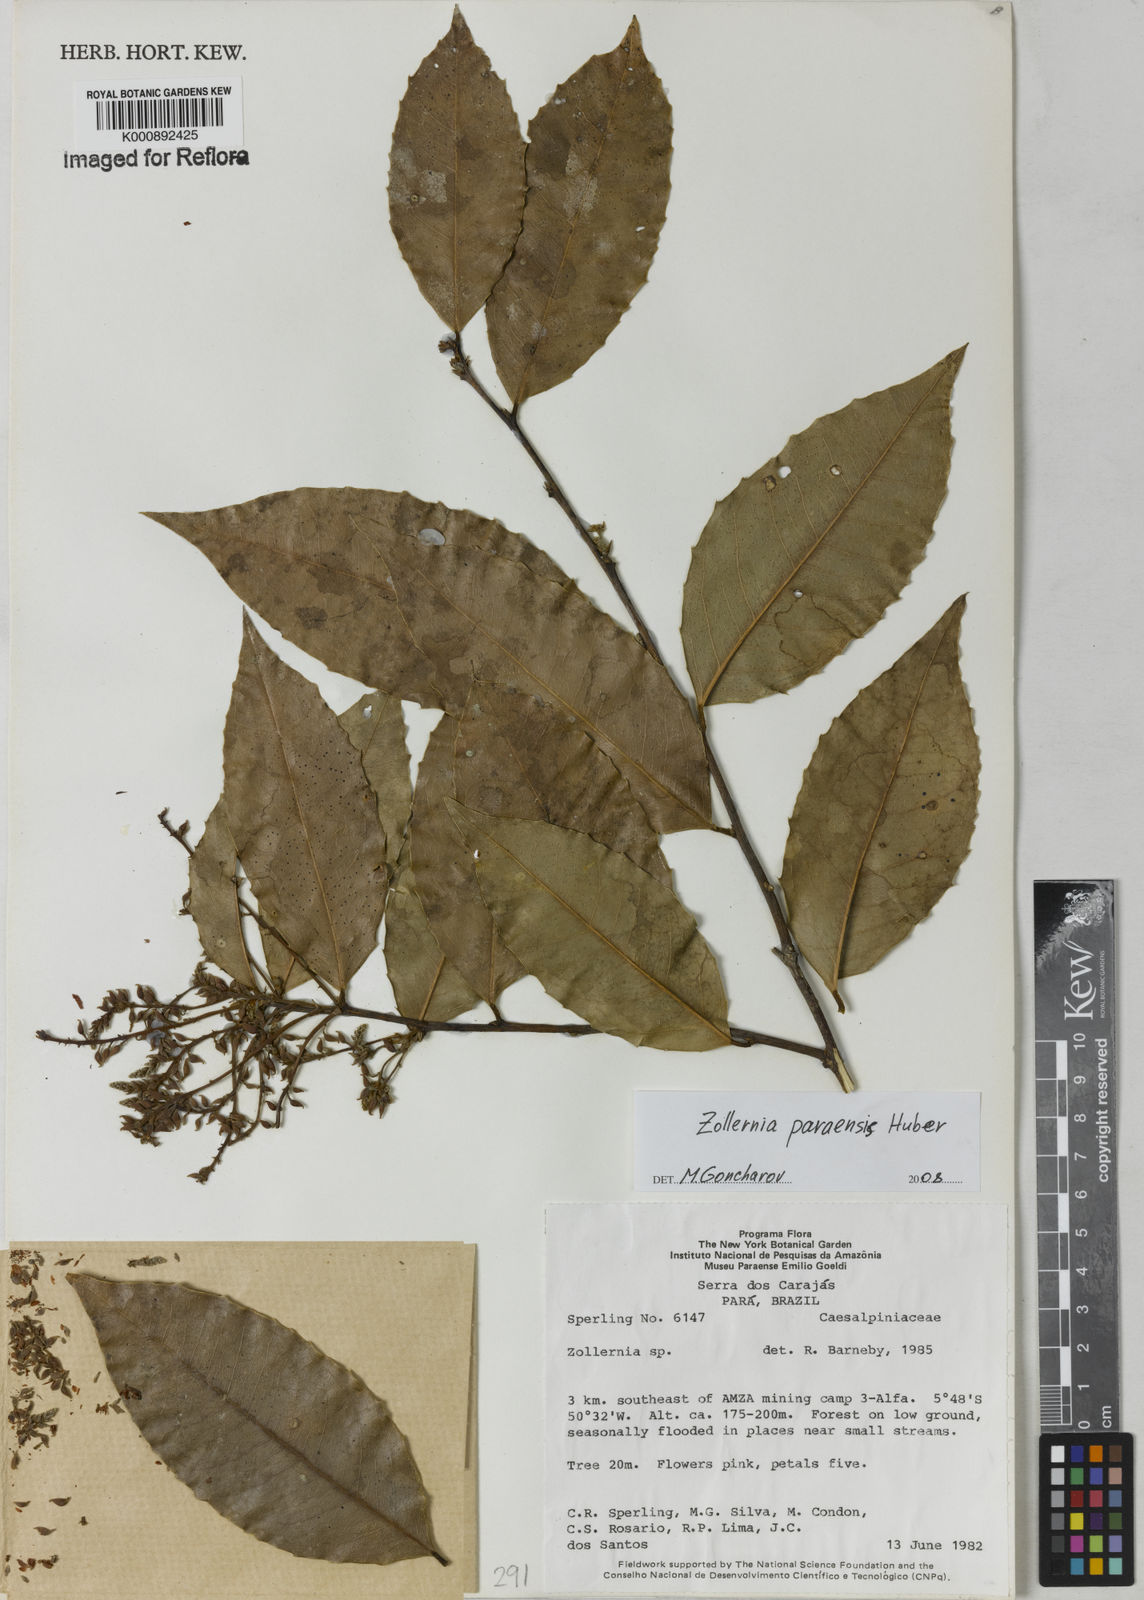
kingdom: Plantae
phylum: Tracheophyta
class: Magnoliopsida
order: Fabales
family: Fabaceae
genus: Zollernia
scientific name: Zollernia paraensis
